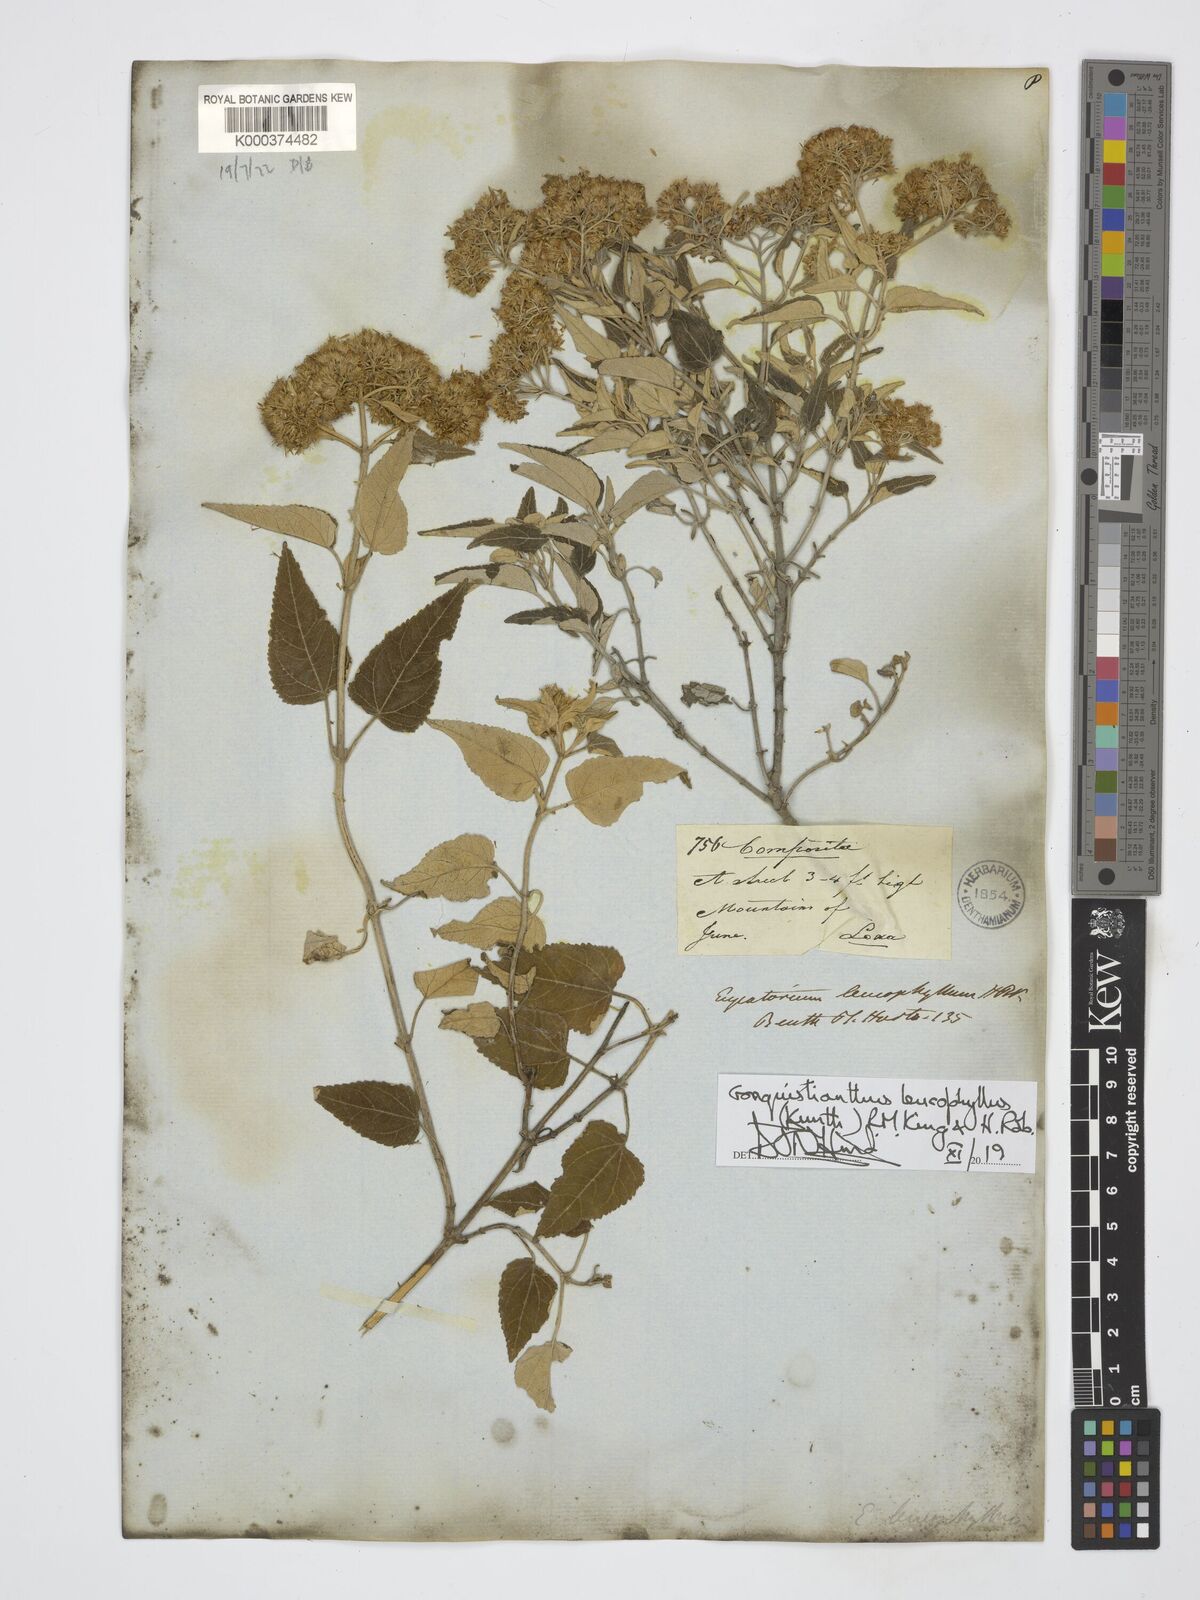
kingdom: Plantae
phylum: Tracheophyta
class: Magnoliopsida
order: Asterales
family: Asteraceae
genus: Cronquistianthus
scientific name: Cronquistianthus leucophyllus
